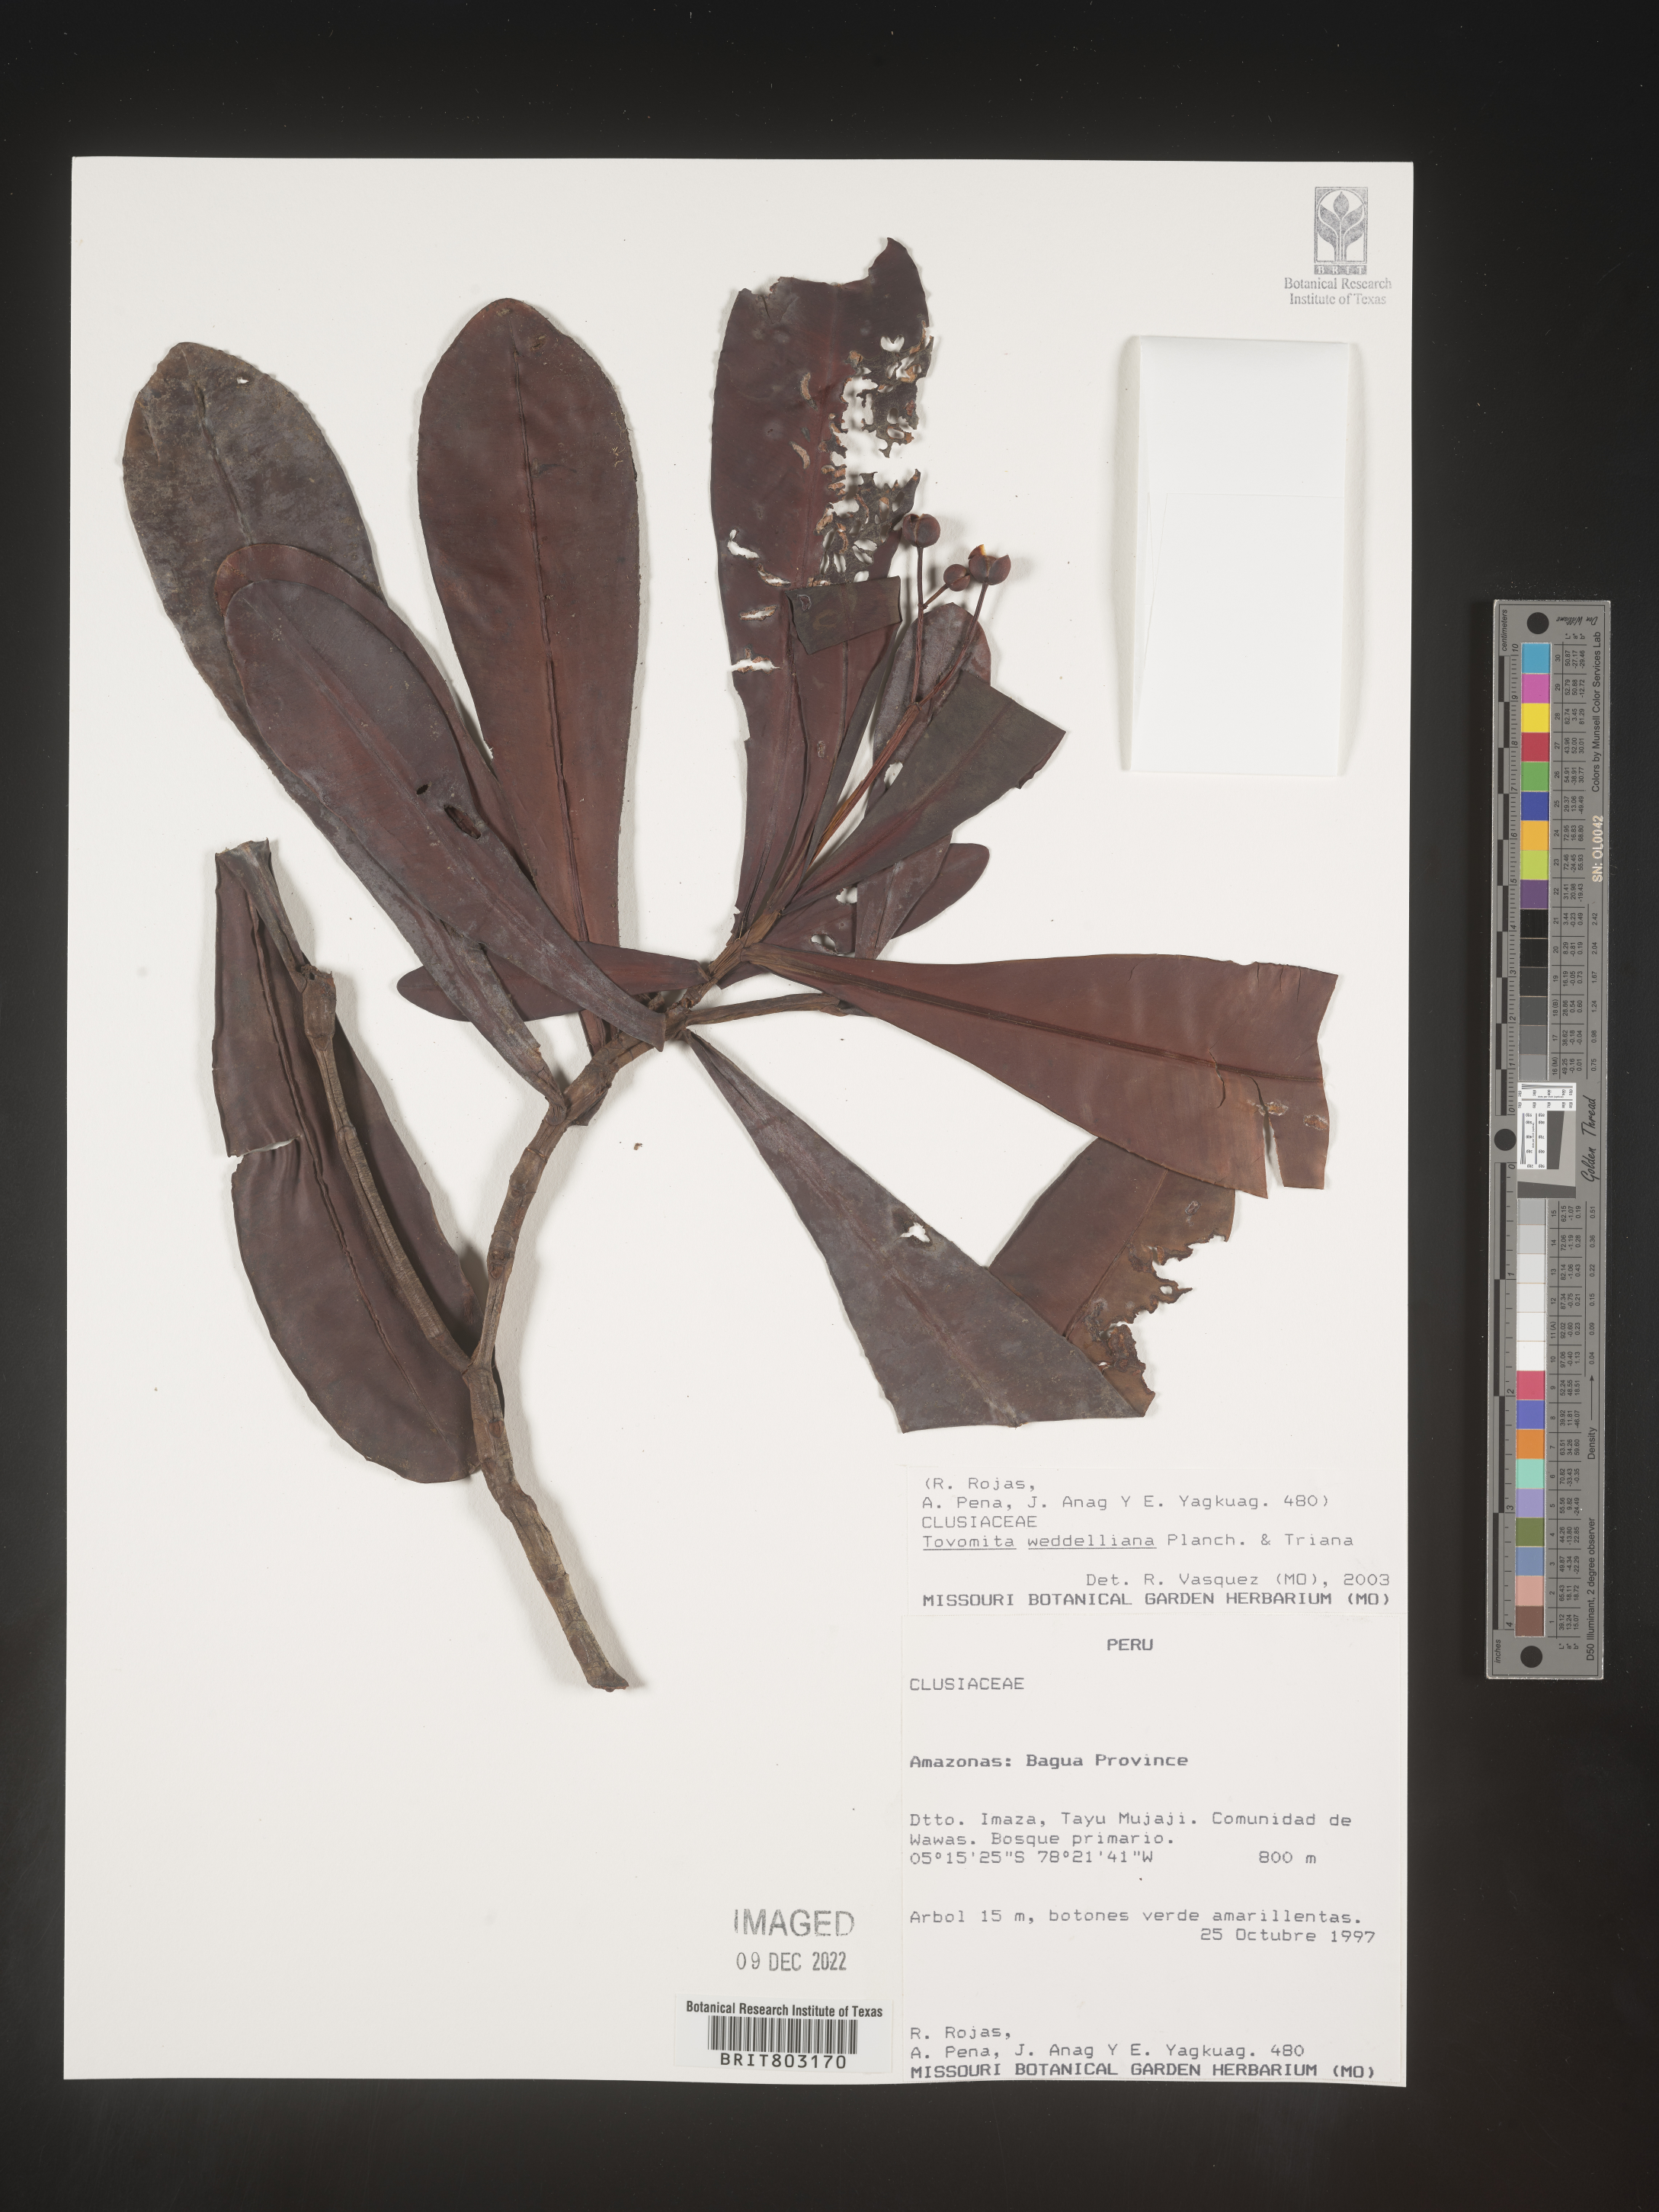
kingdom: Plantae
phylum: Tracheophyta
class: Magnoliopsida
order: Malpighiales
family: Clusiaceae
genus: Arawakia
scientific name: Arawakia weddelliana
